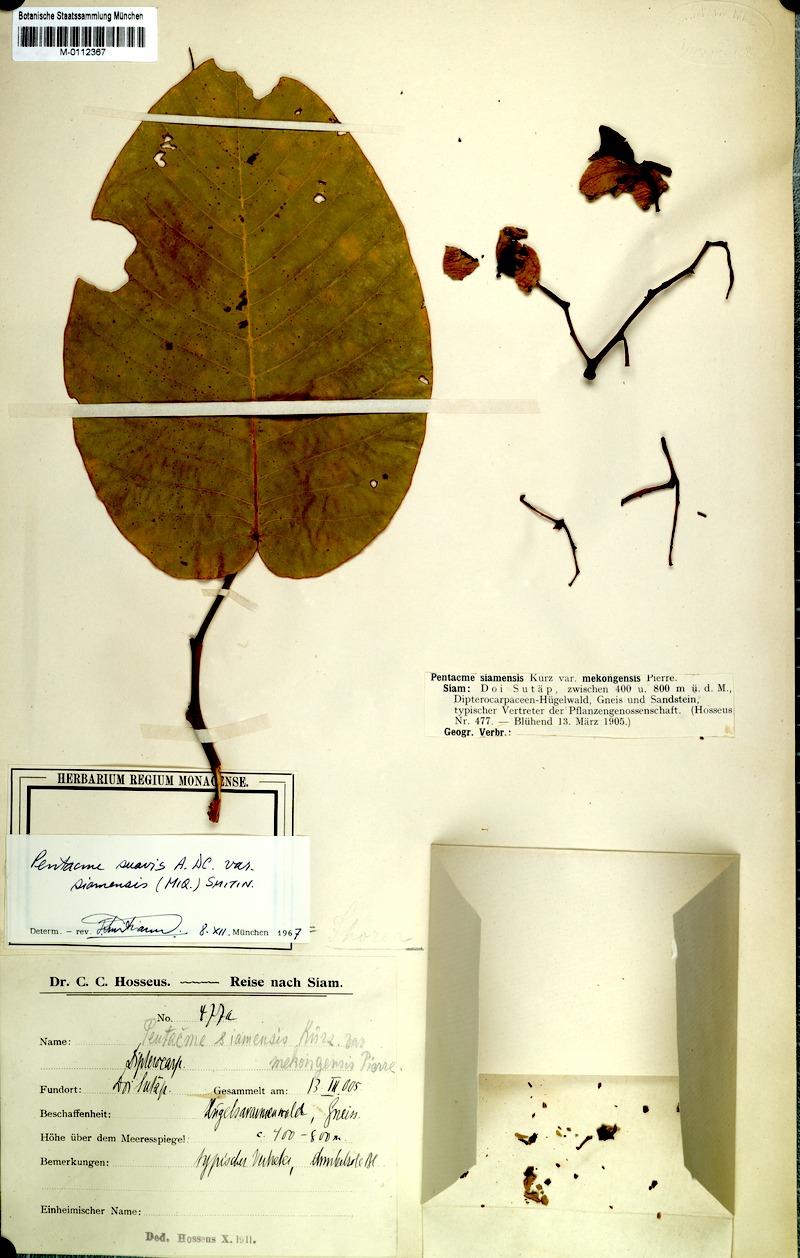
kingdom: Plantae
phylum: Tracheophyta
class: Magnoliopsida
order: Malvales
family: Dipterocarpaceae
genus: Pentacme
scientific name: Pentacme siamensis
